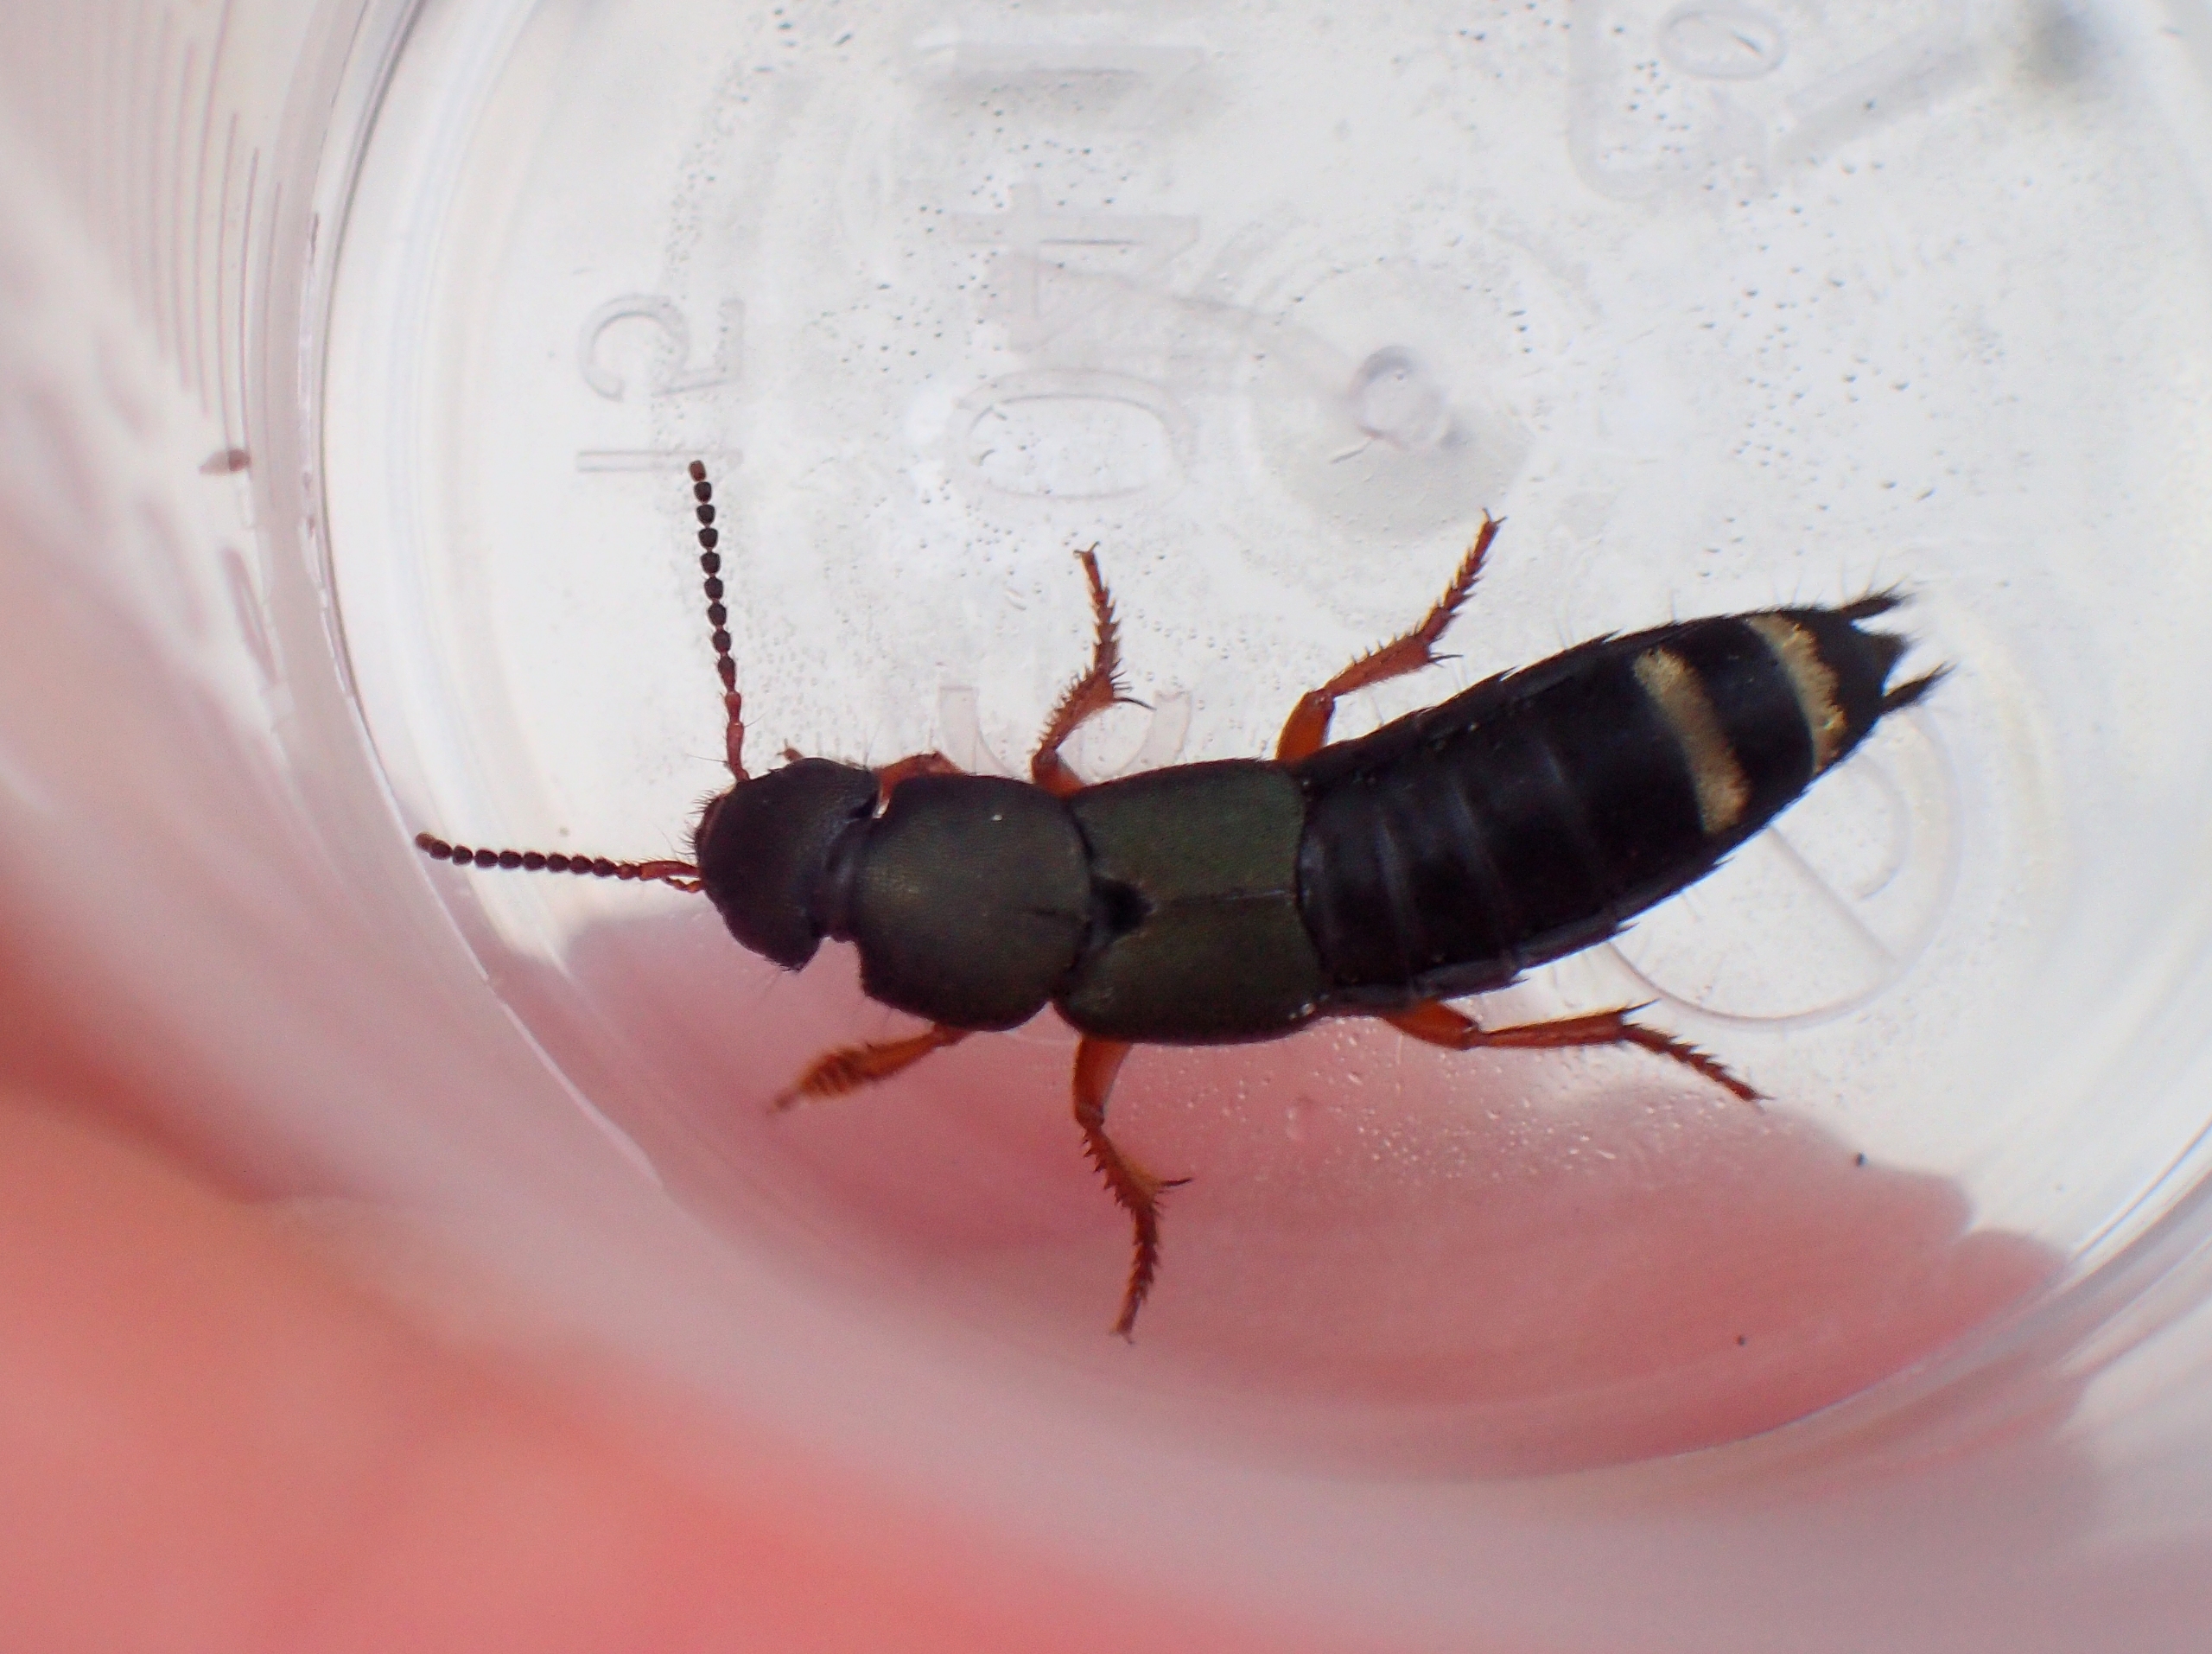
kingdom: Animalia
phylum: Arthropoda
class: Insecta
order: Coleoptera
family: Staphylinidae
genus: Platydracus
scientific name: Platydracus fulvipes
